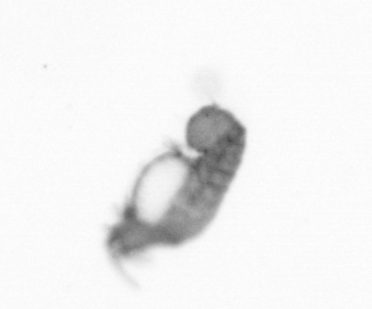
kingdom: Animalia
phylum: Annelida
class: Polychaeta
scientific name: Polychaeta
